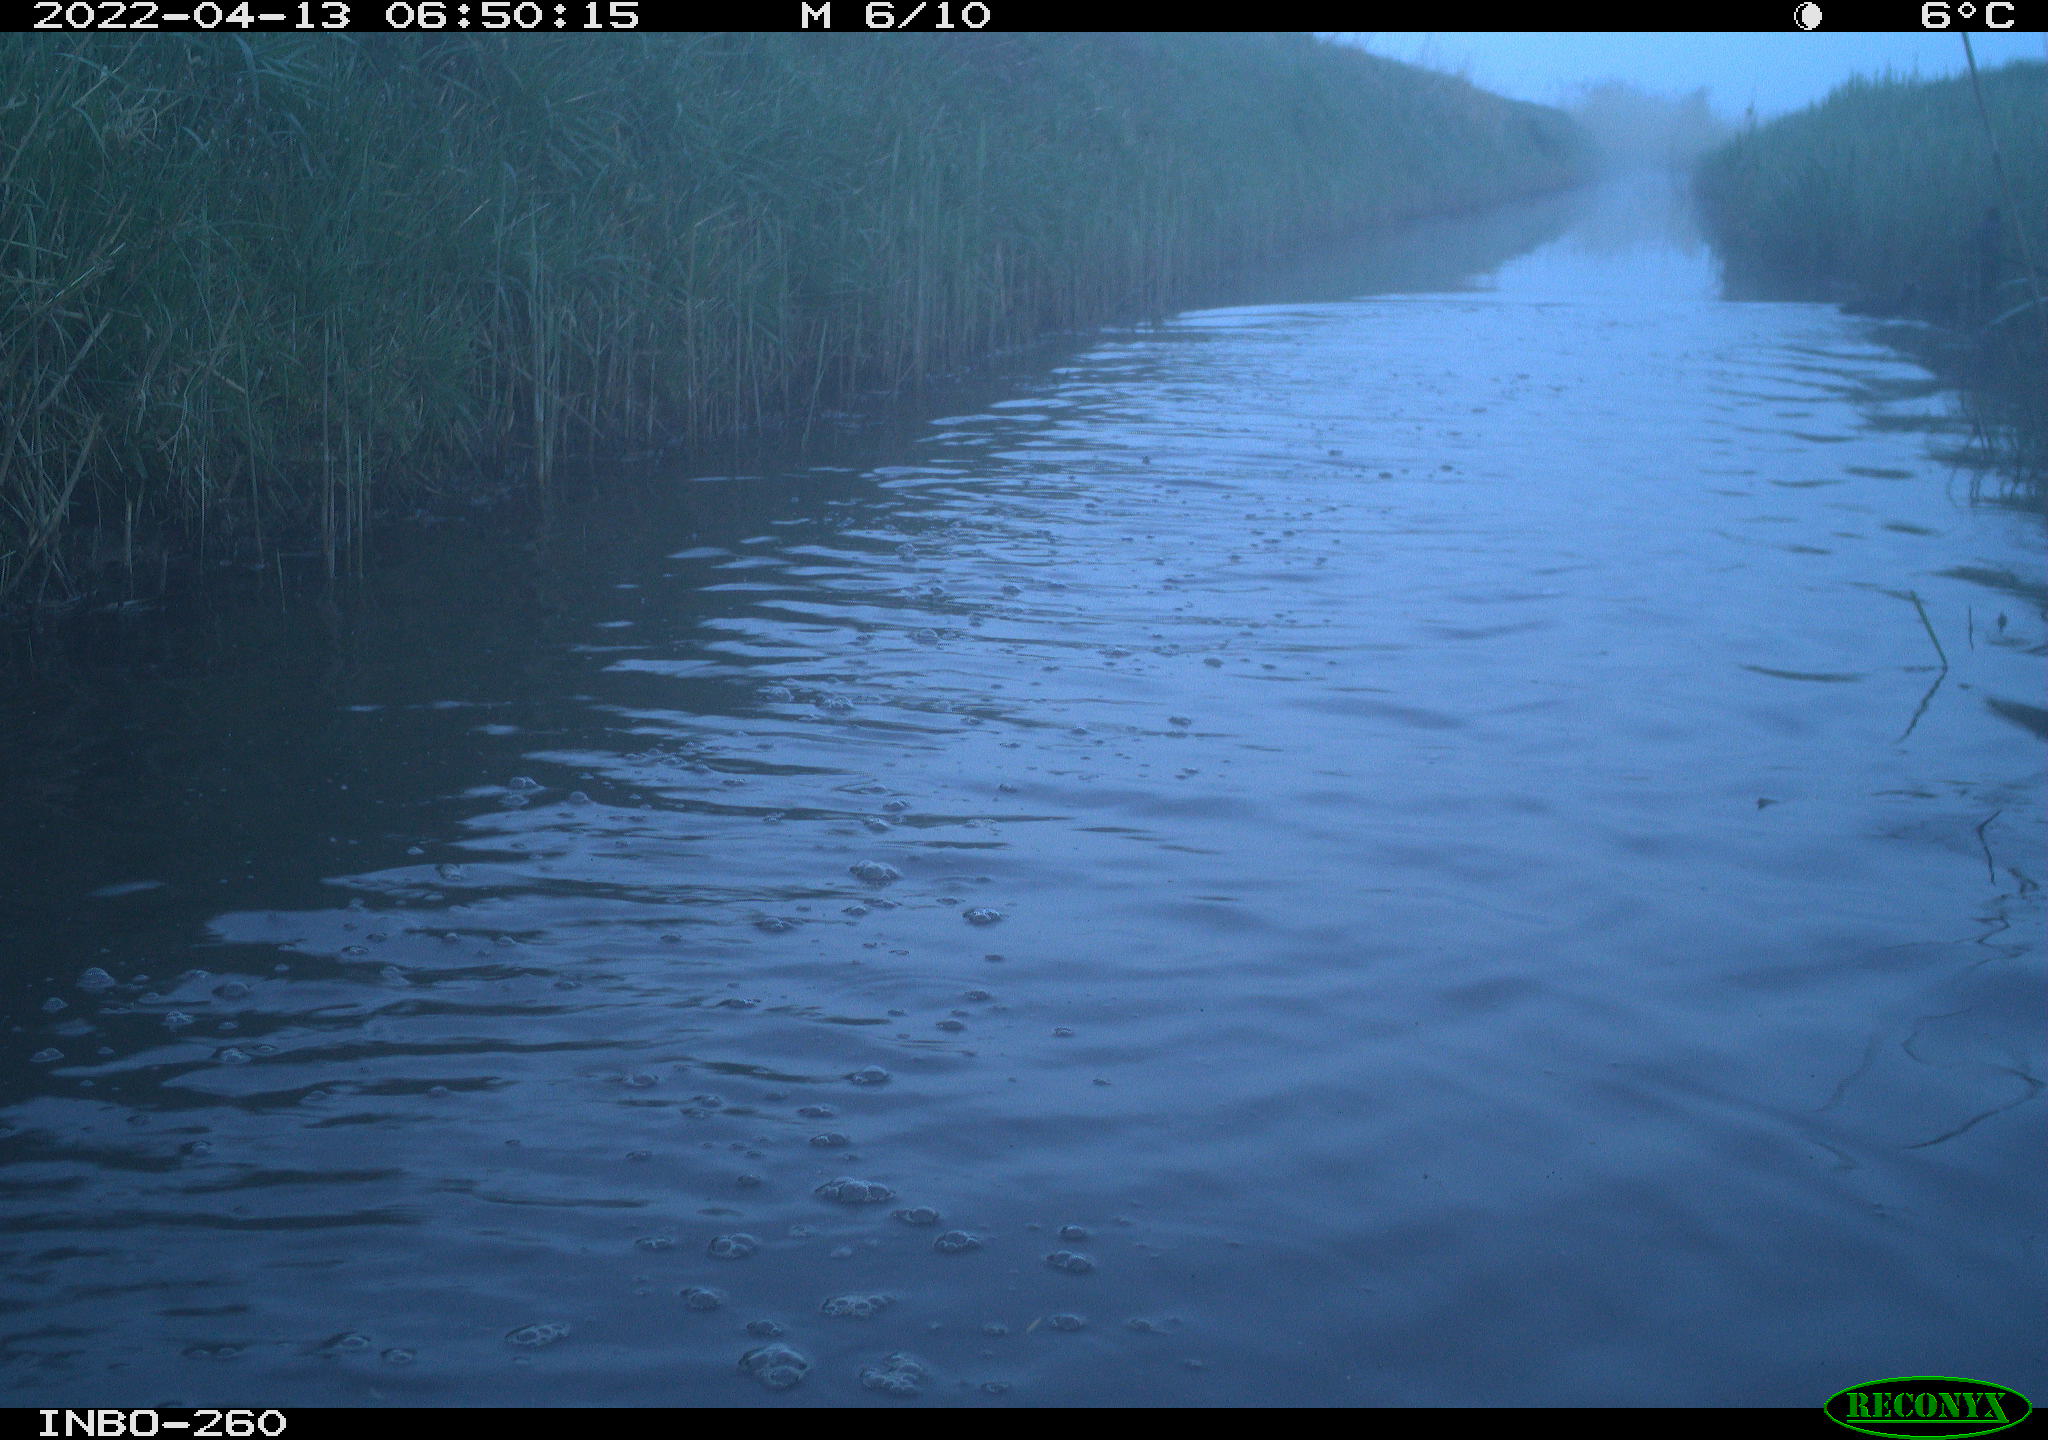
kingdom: Animalia
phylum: Chordata
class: Aves
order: Gruiformes
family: Rallidae
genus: Fulica
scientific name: Fulica atra
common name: Eurasian coot
